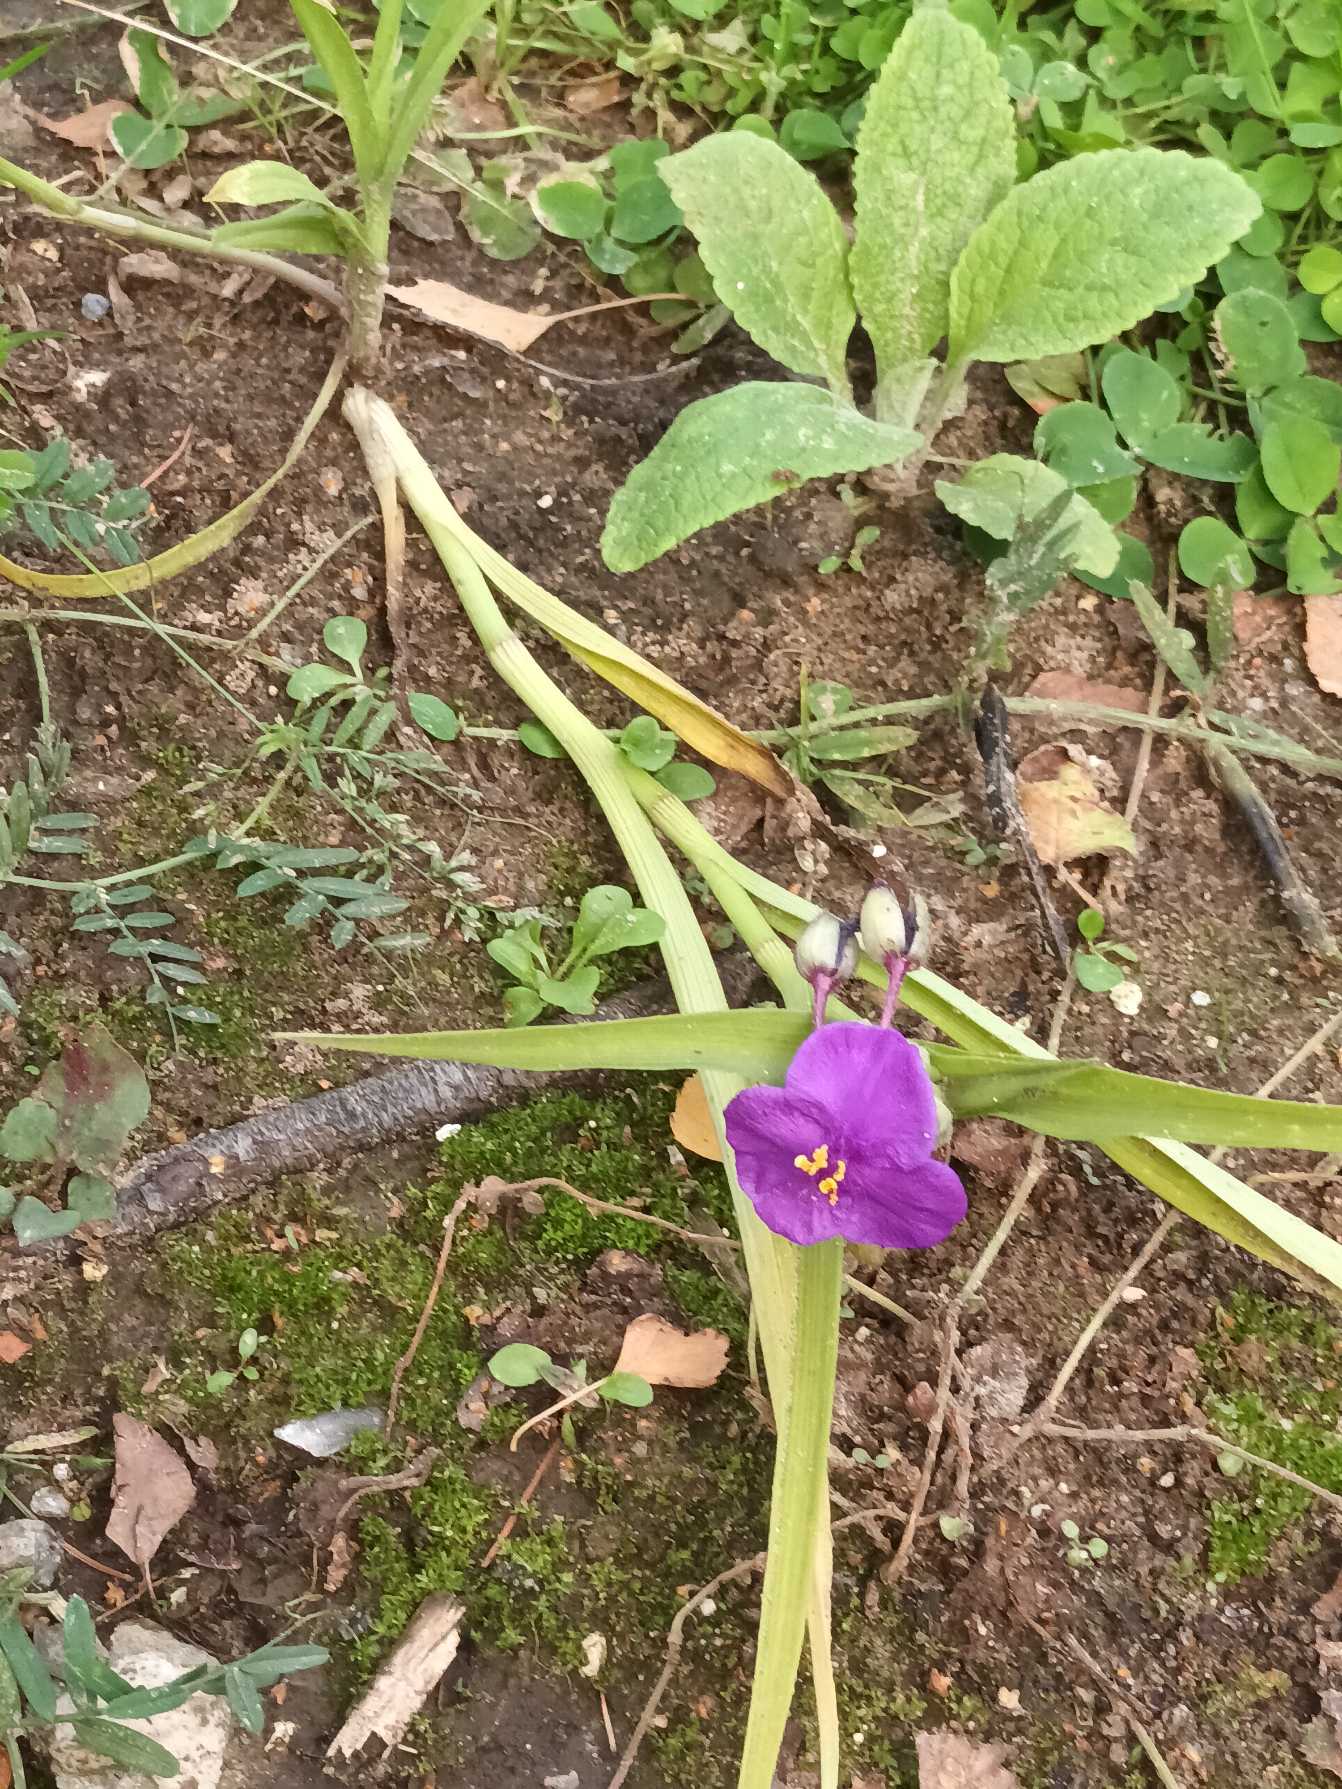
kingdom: Plantae
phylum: Tracheophyta
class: Liliopsida
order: Commelinales
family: Commelinaceae
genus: Tradescantia
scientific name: Tradescantia virginiana
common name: Blomsterjøde
